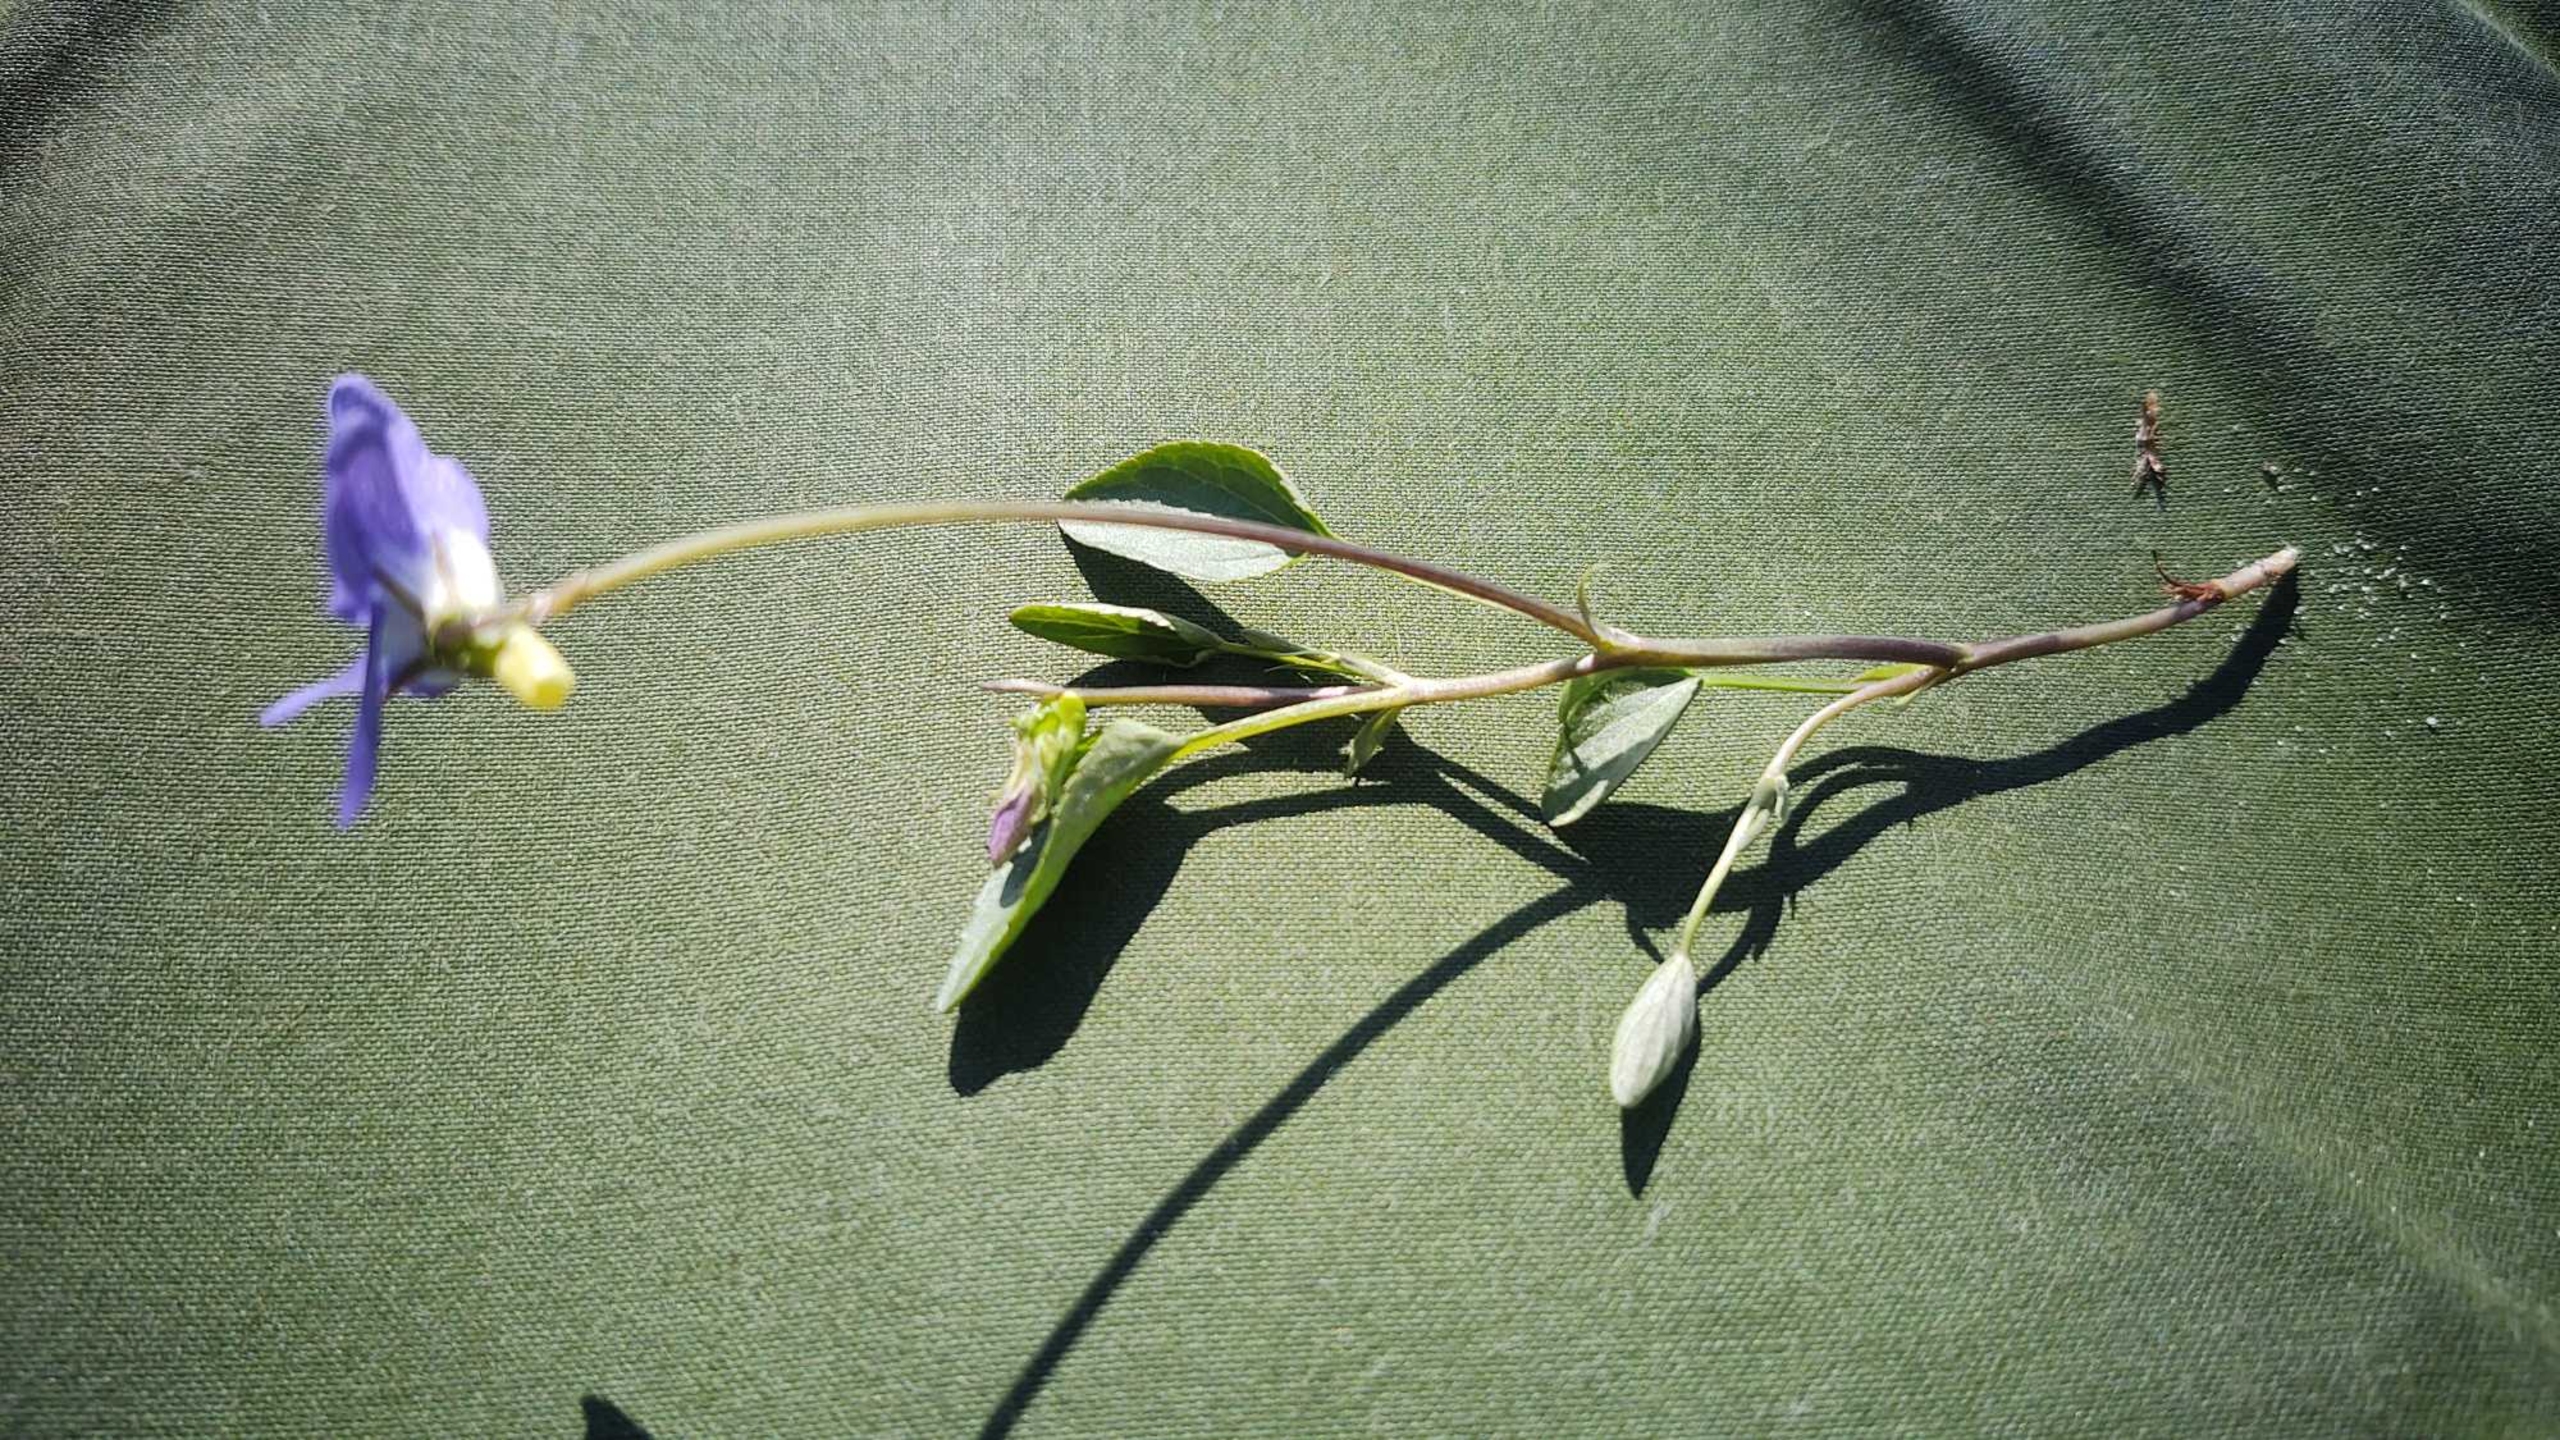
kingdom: Plantae
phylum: Tracheophyta
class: Magnoliopsida
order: Malpighiales
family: Violaceae
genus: Viola
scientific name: Viola canina
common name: Hunde-viol
